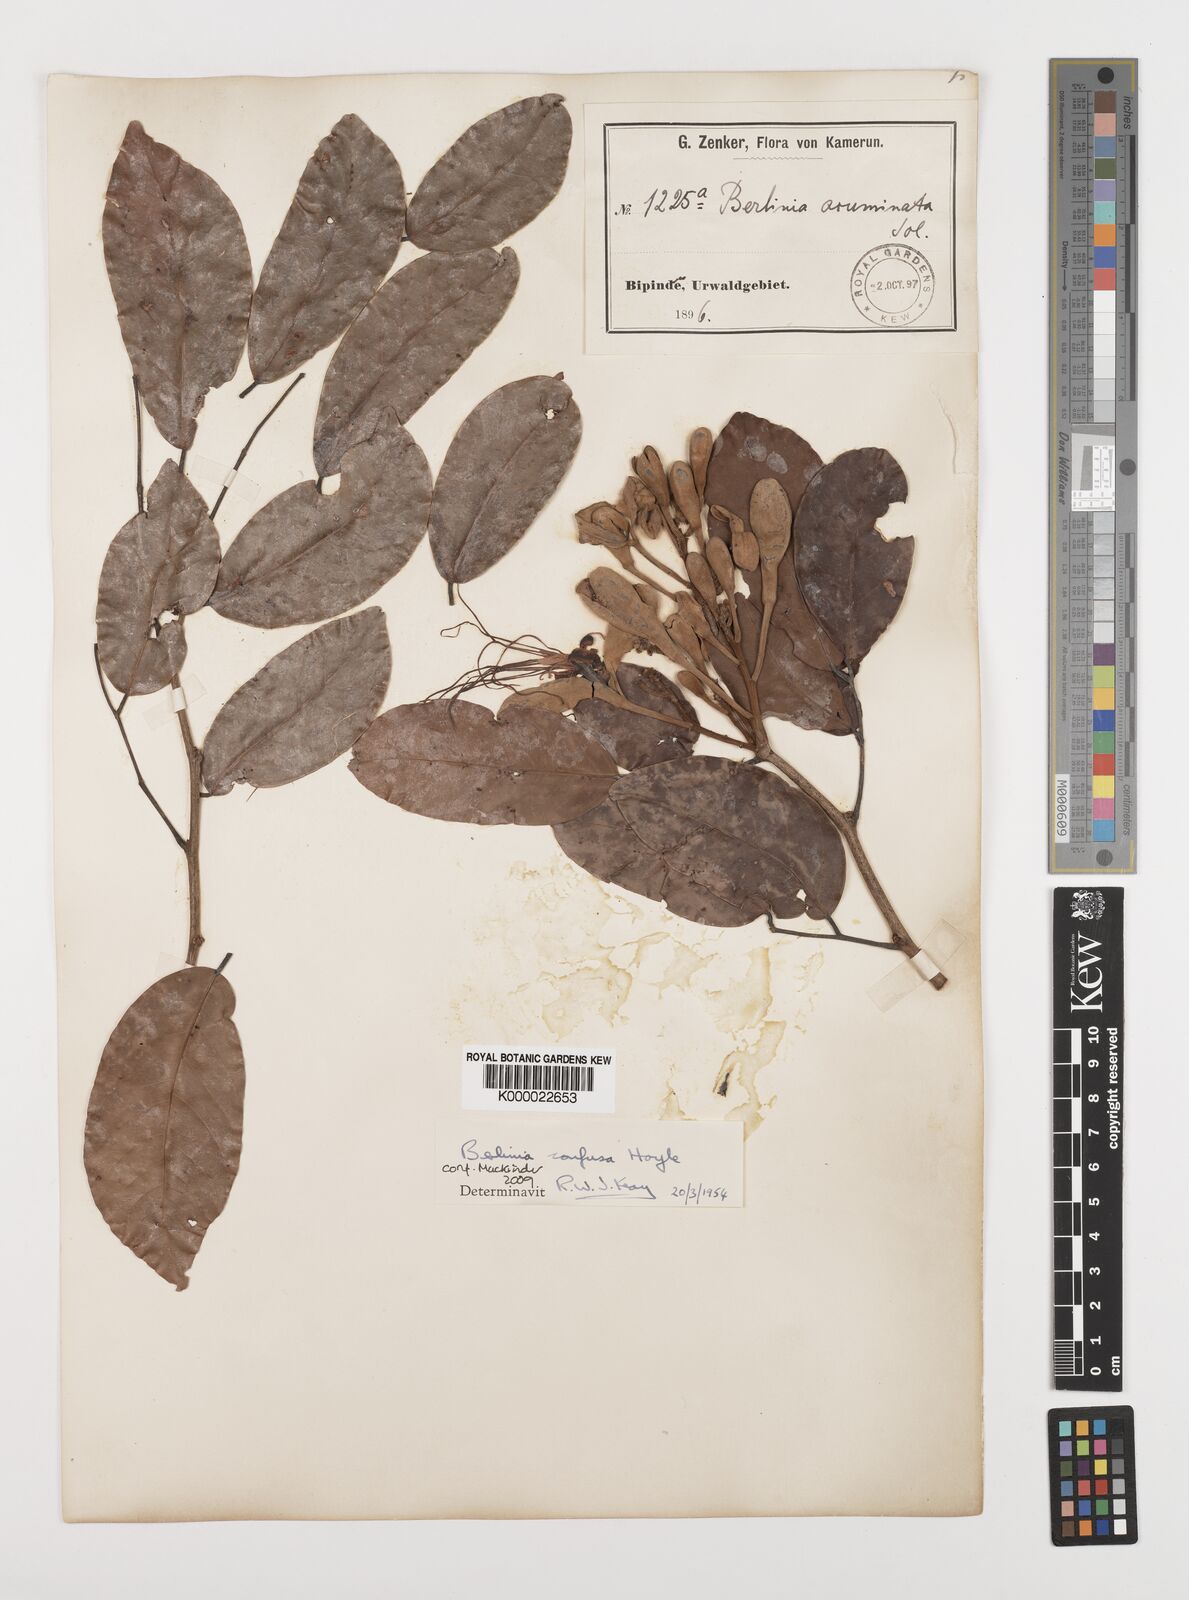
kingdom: Plantae
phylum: Tracheophyta
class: Magnoliopsida
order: Fabales
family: Fabaceae
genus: Berlinia
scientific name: Berlinia confusa
